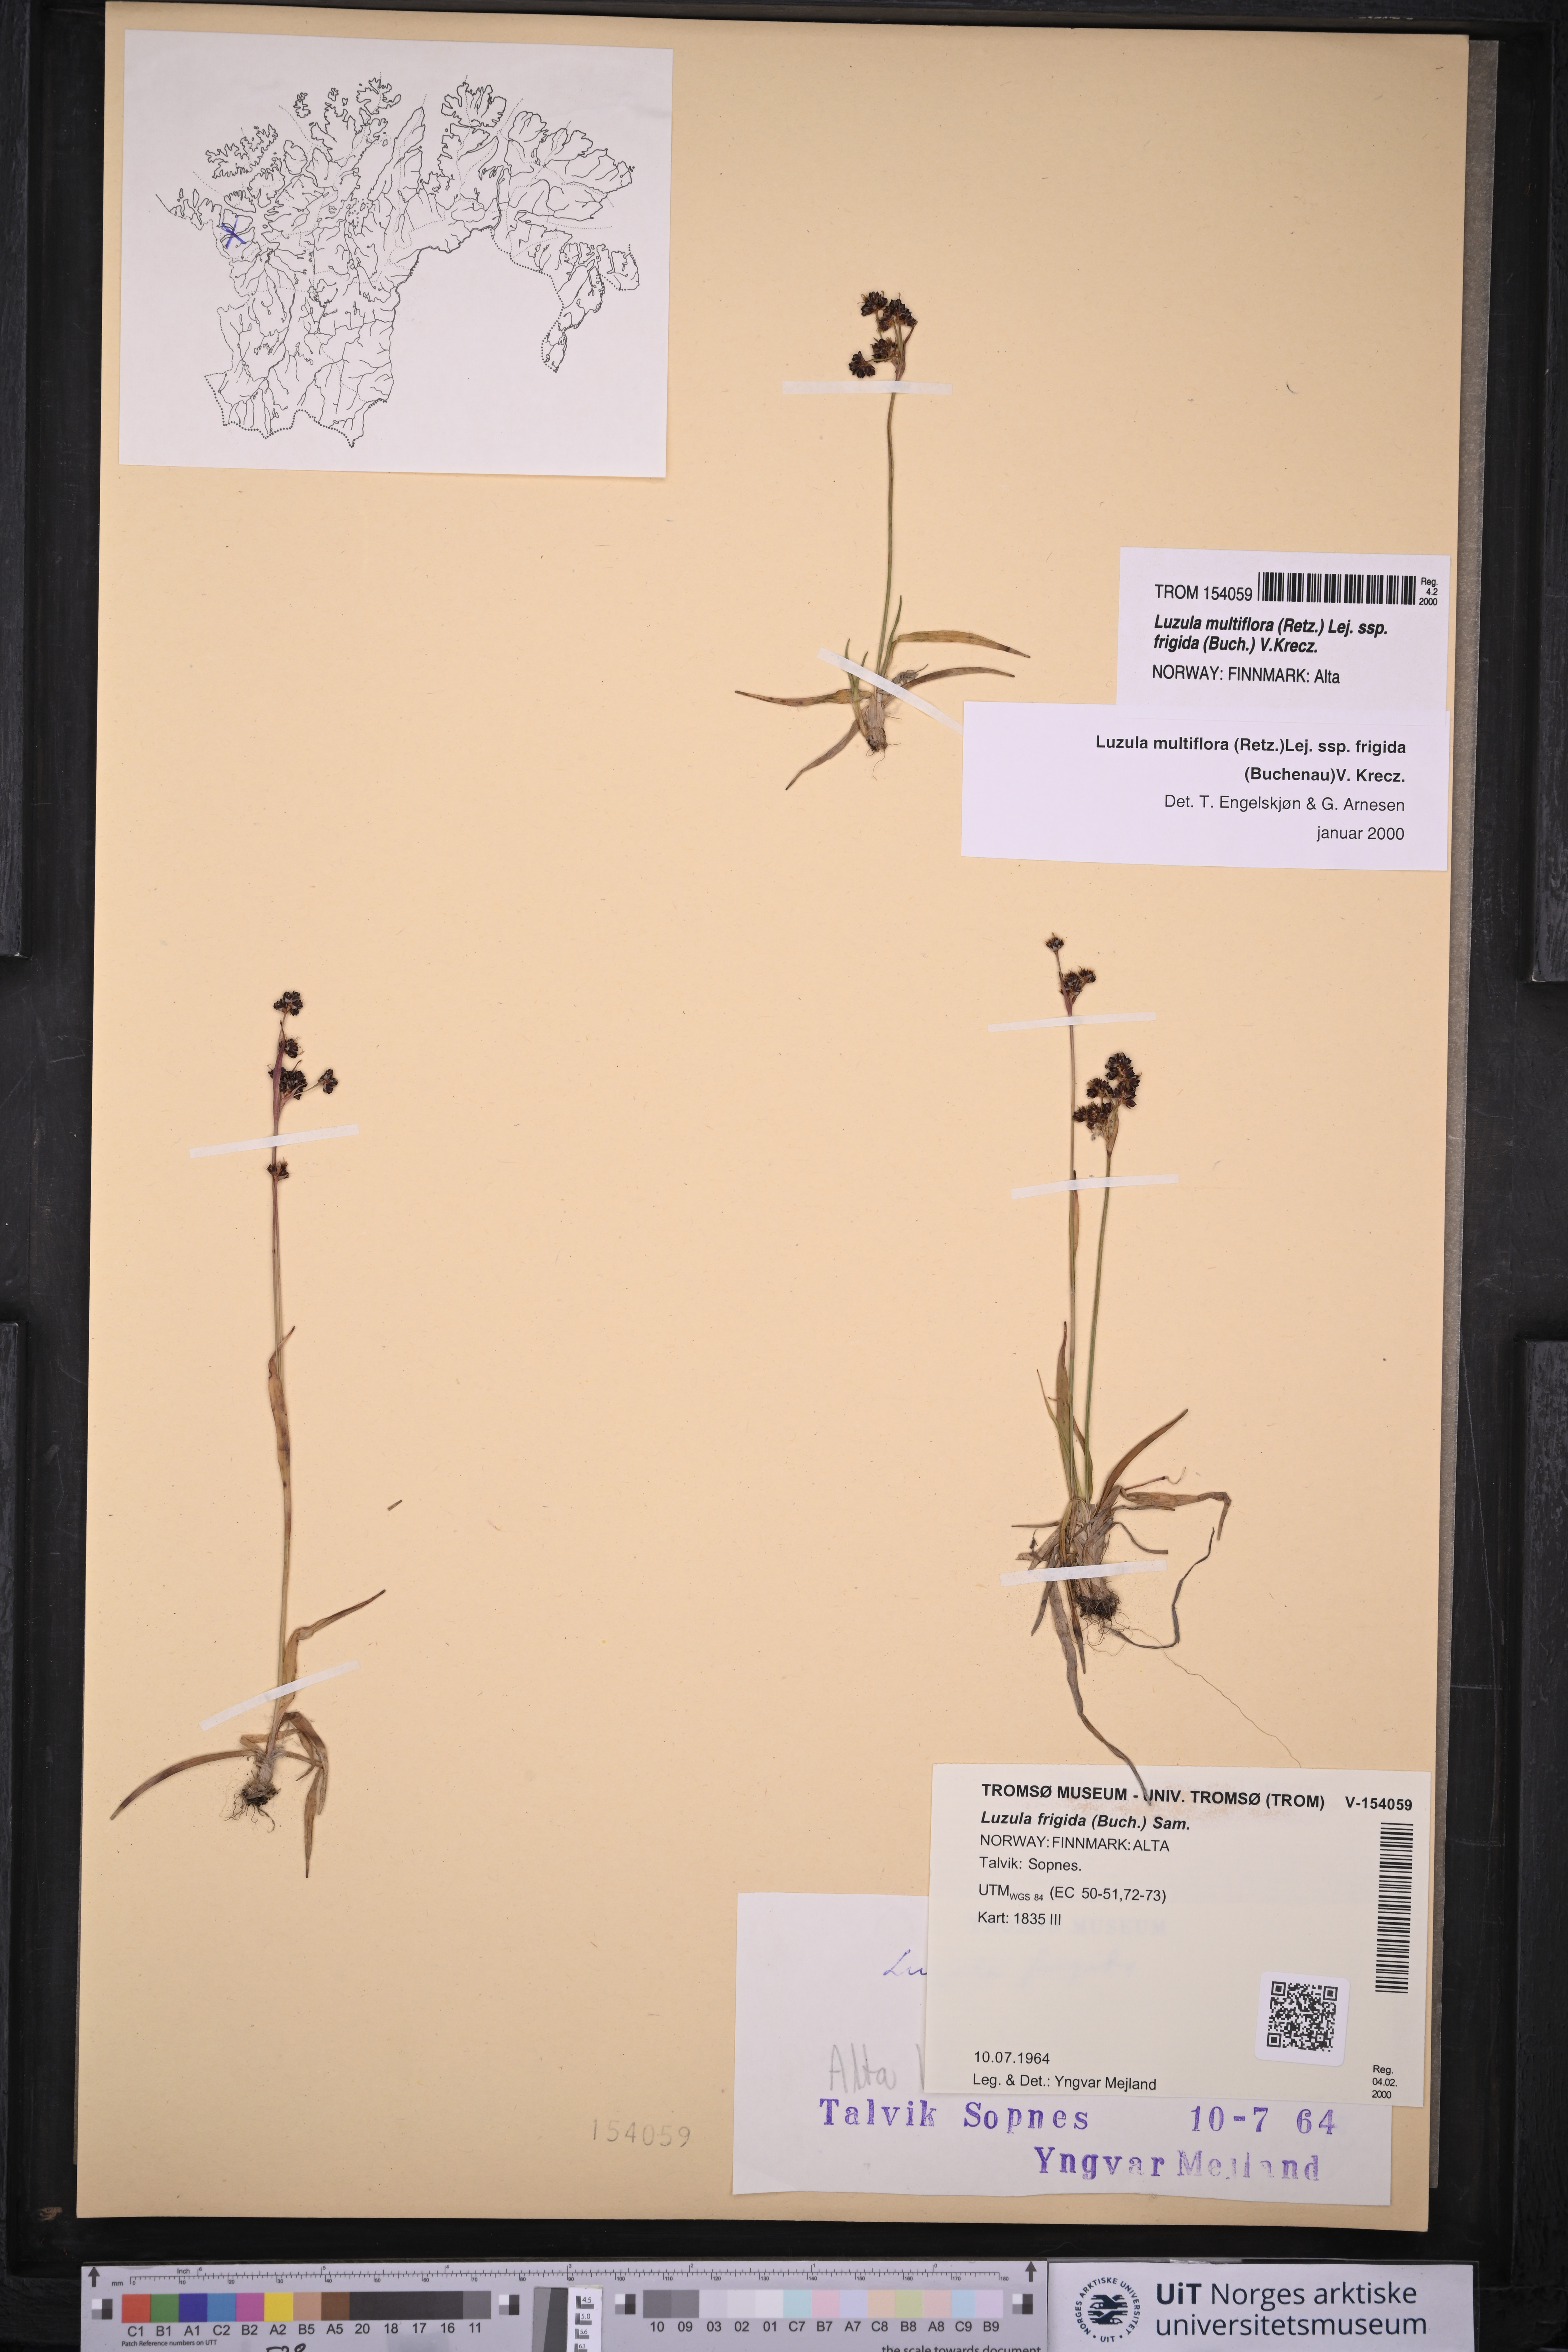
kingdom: Plantae
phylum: Tracheophyta
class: Liliopsida
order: Poales
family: Juncaceae
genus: Luzula
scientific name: Luzula multiflora
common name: Heath wood-rush
